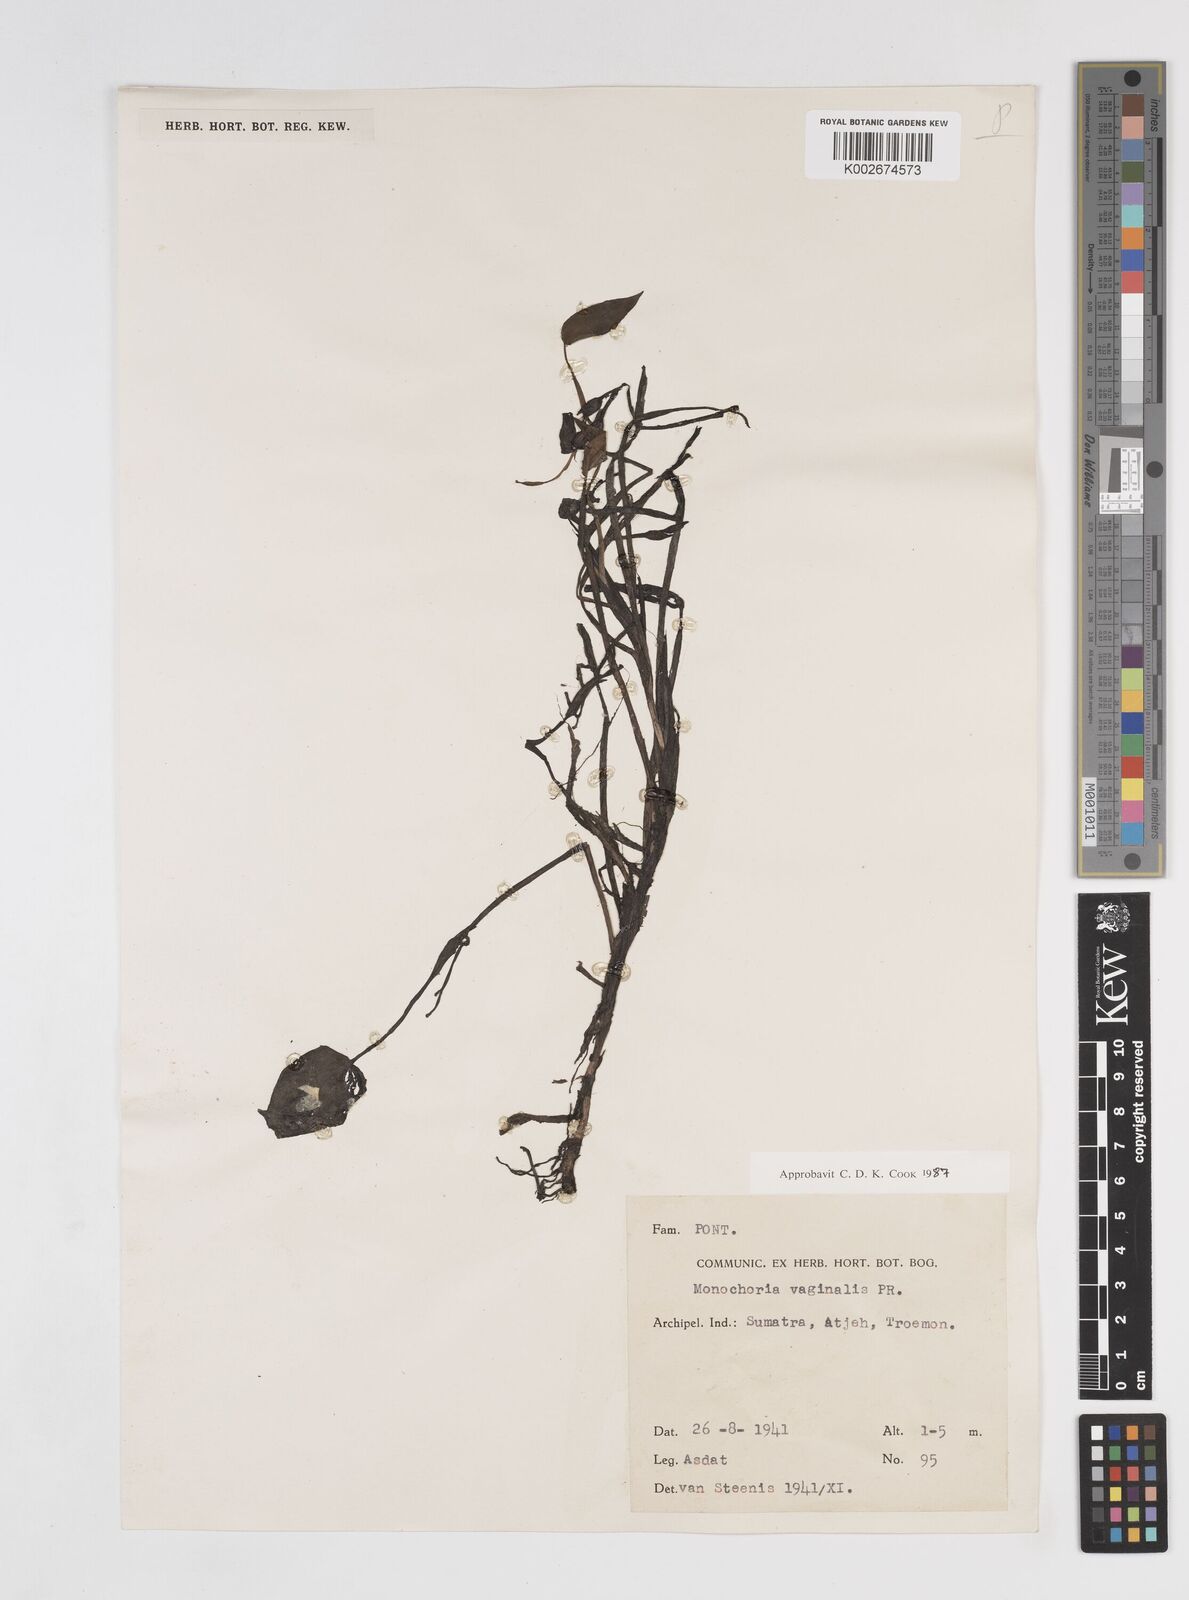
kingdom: Plantae
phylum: Tracheophyta
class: Liliopsida
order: Commelinales
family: Pontederiaceae
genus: Pontederia
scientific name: Pontederia vaginalis
